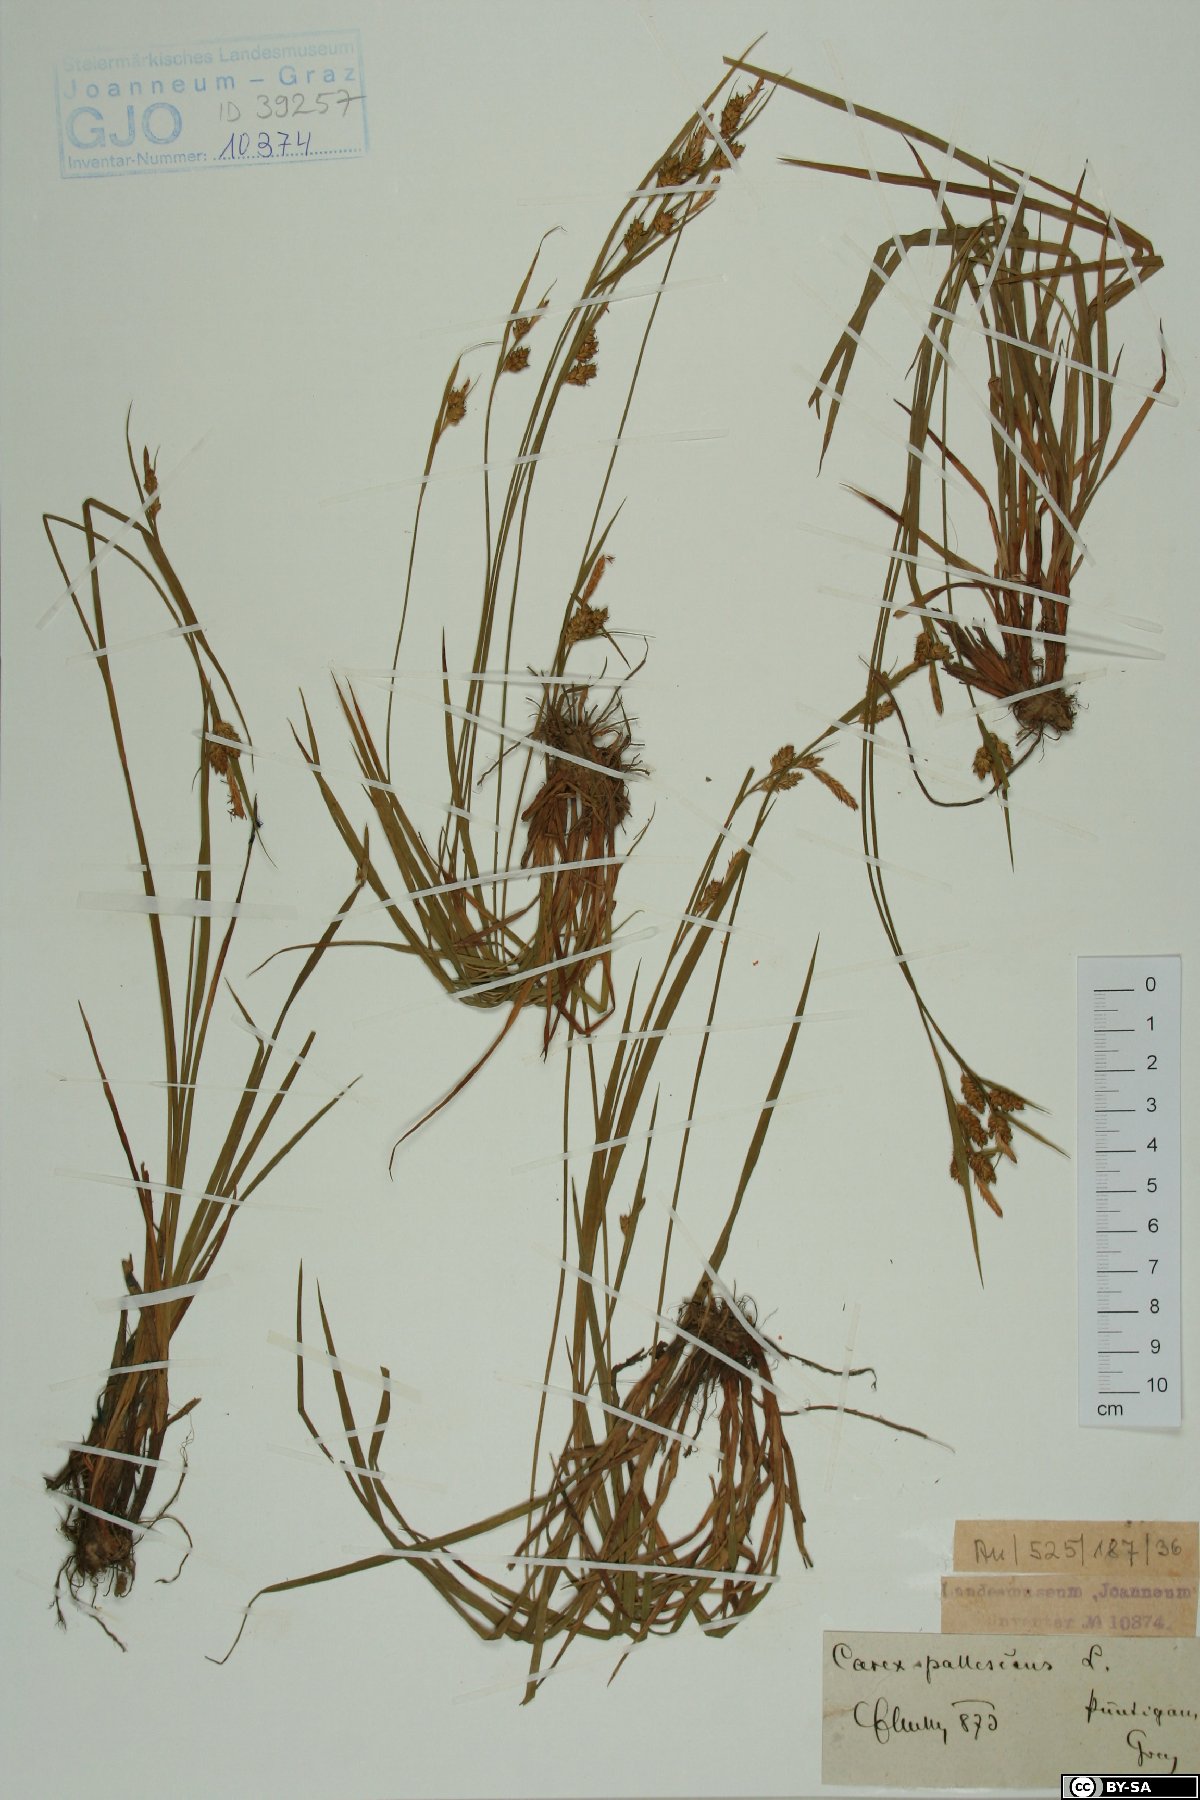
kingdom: Plantae
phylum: Tracheophyta
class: Liliopsida
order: Poales
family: Cyperaceae
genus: Carex
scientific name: Carex pallescens
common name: Pale sedge
